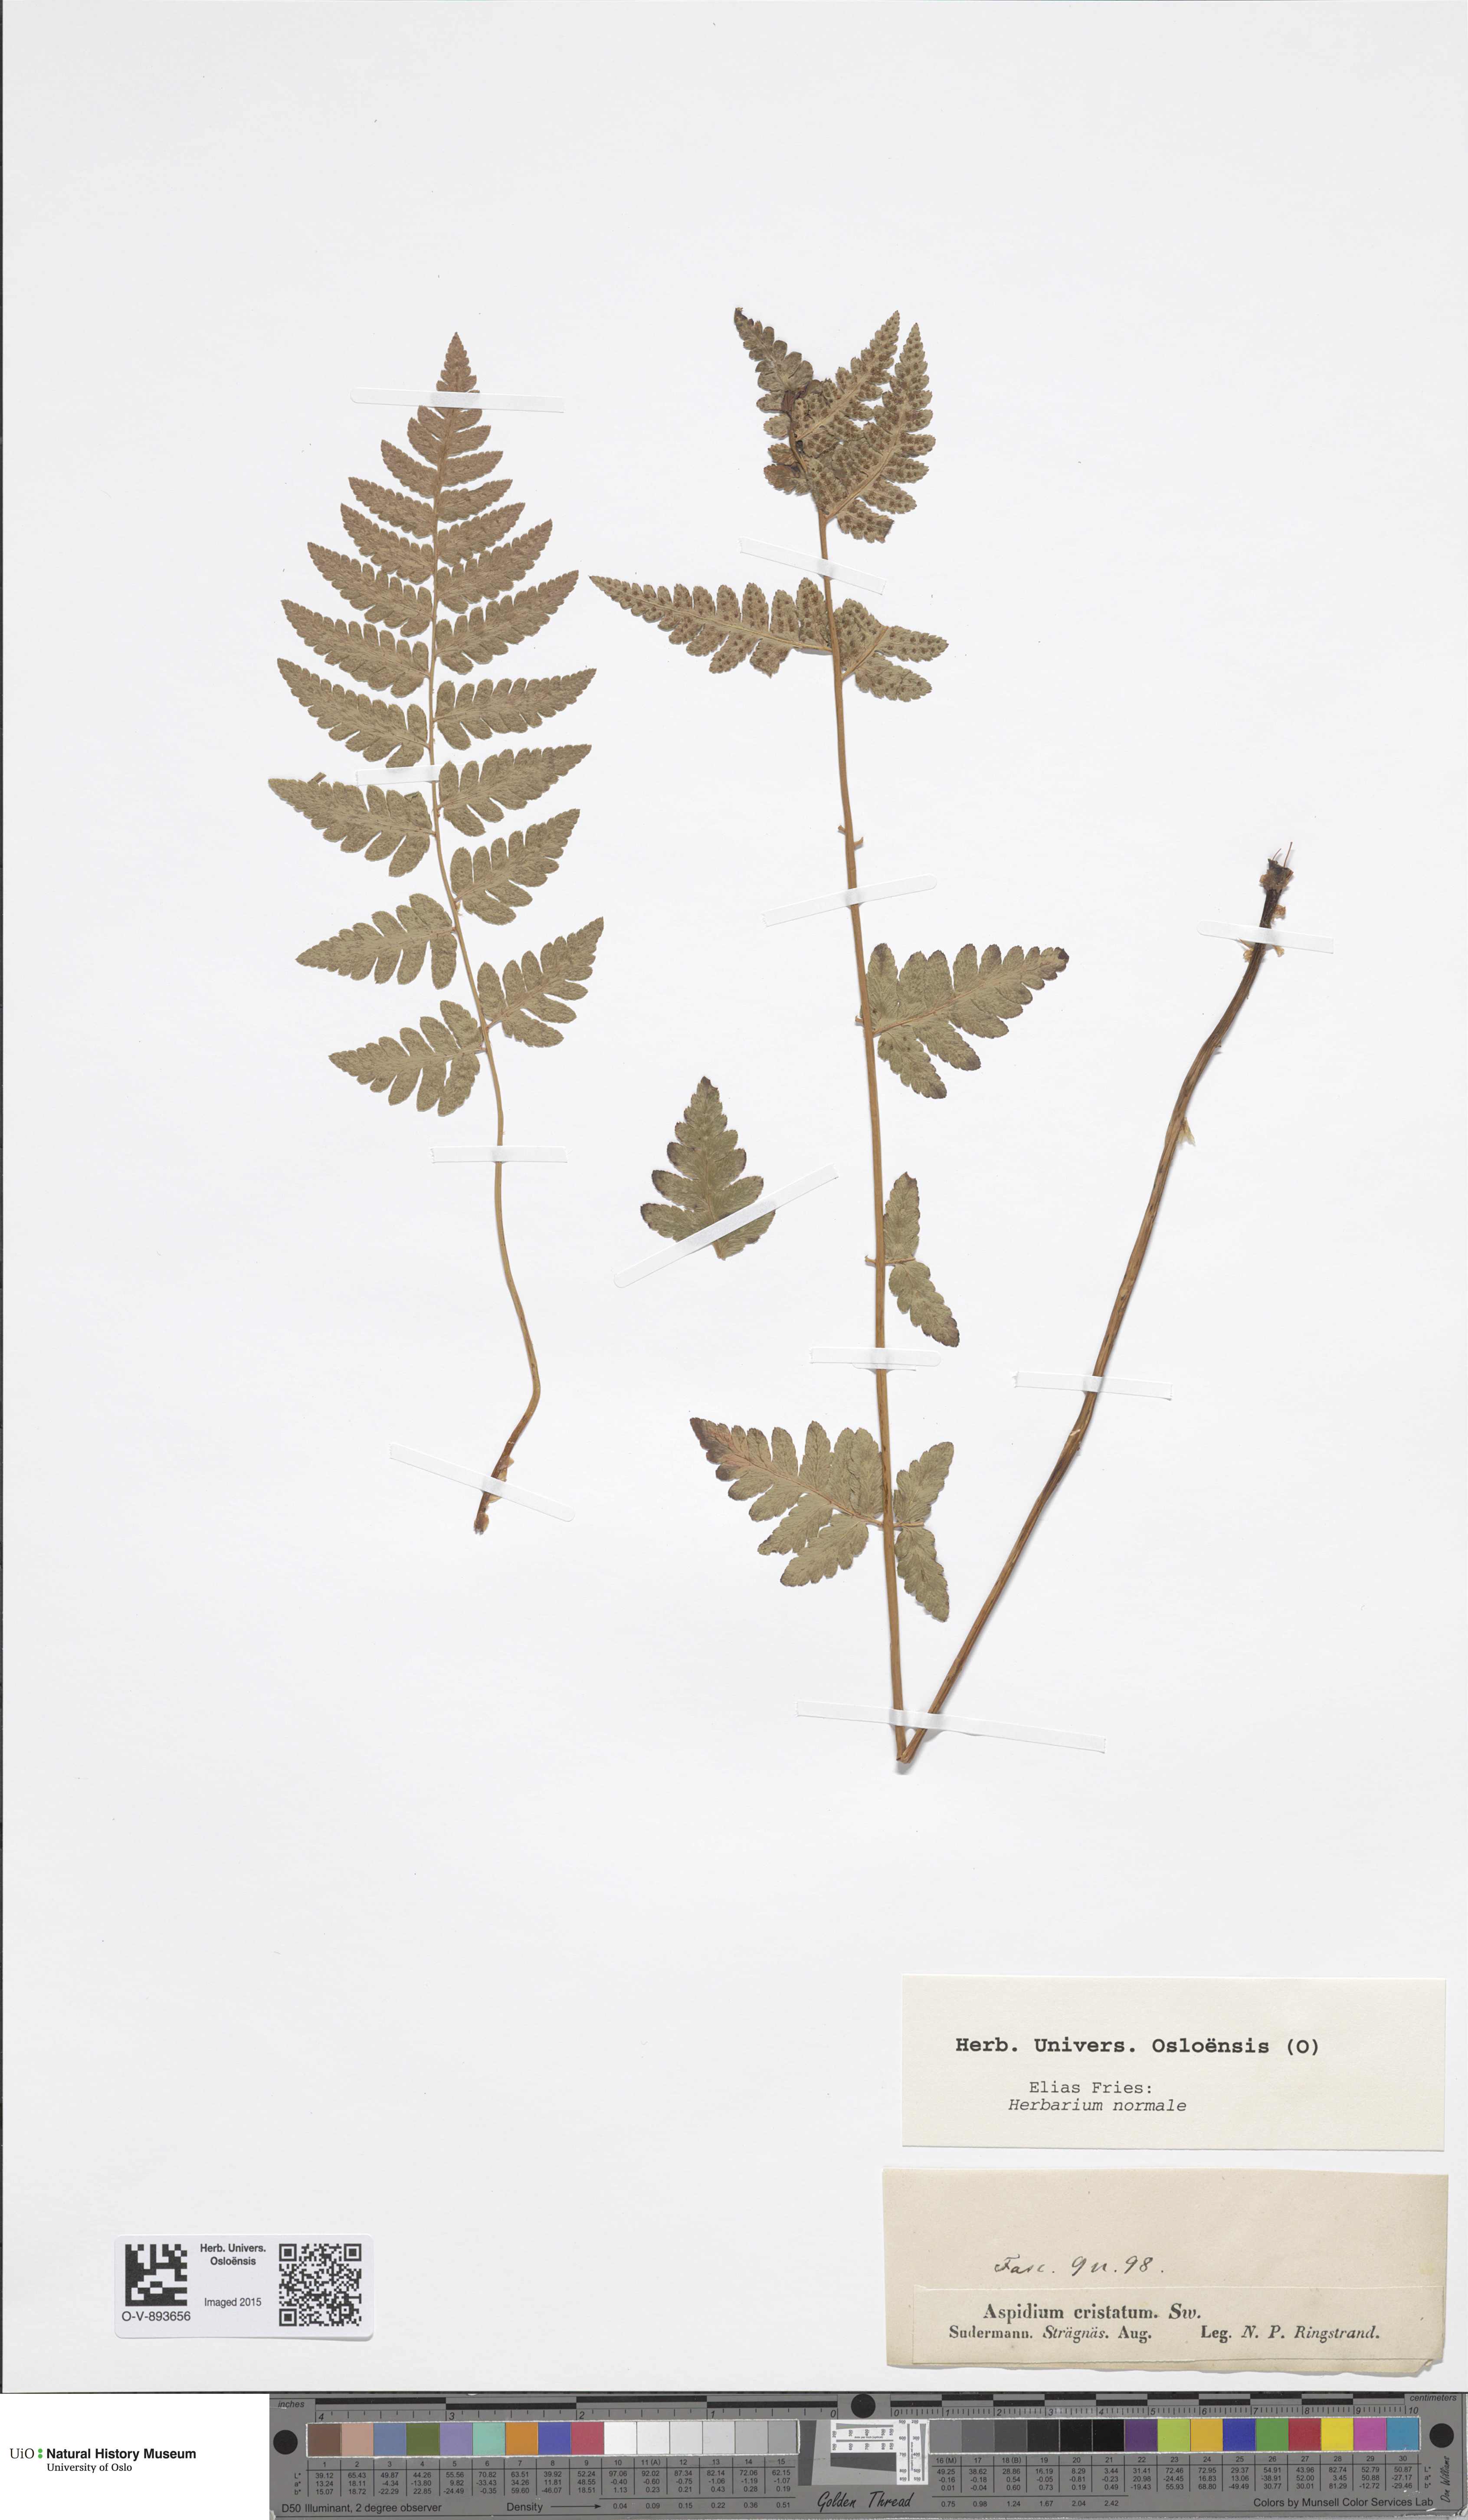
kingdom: Plantae
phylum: Tracheophyta
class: Polypodiopsida
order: Polypodiales
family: Dryopteridaceae
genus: Dryopteris
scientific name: Dryopteris cristata
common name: Crested wood fern
